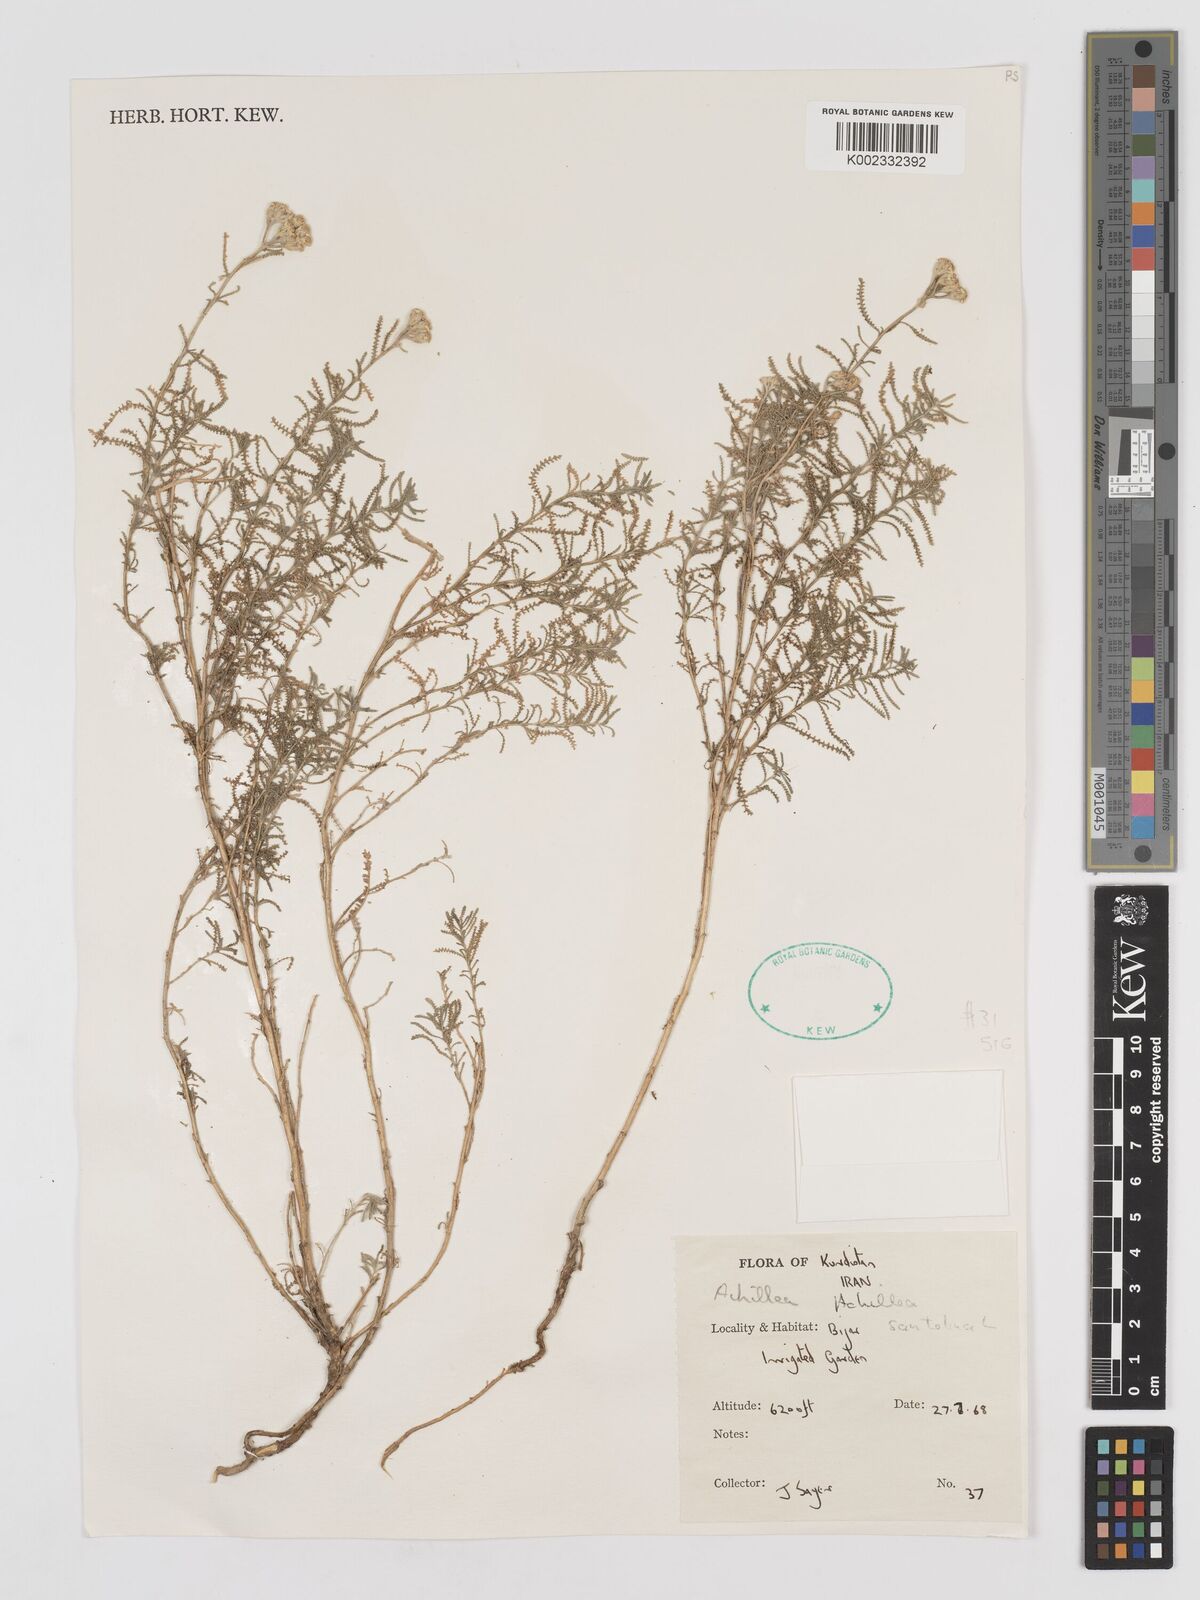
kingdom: Plantae
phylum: Tracheophyta
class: Magnoliopsida
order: Asterales
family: Asteraceae
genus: Achillea
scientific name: Achillea cretica
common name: Chamomile-leaved lavender-cotton
